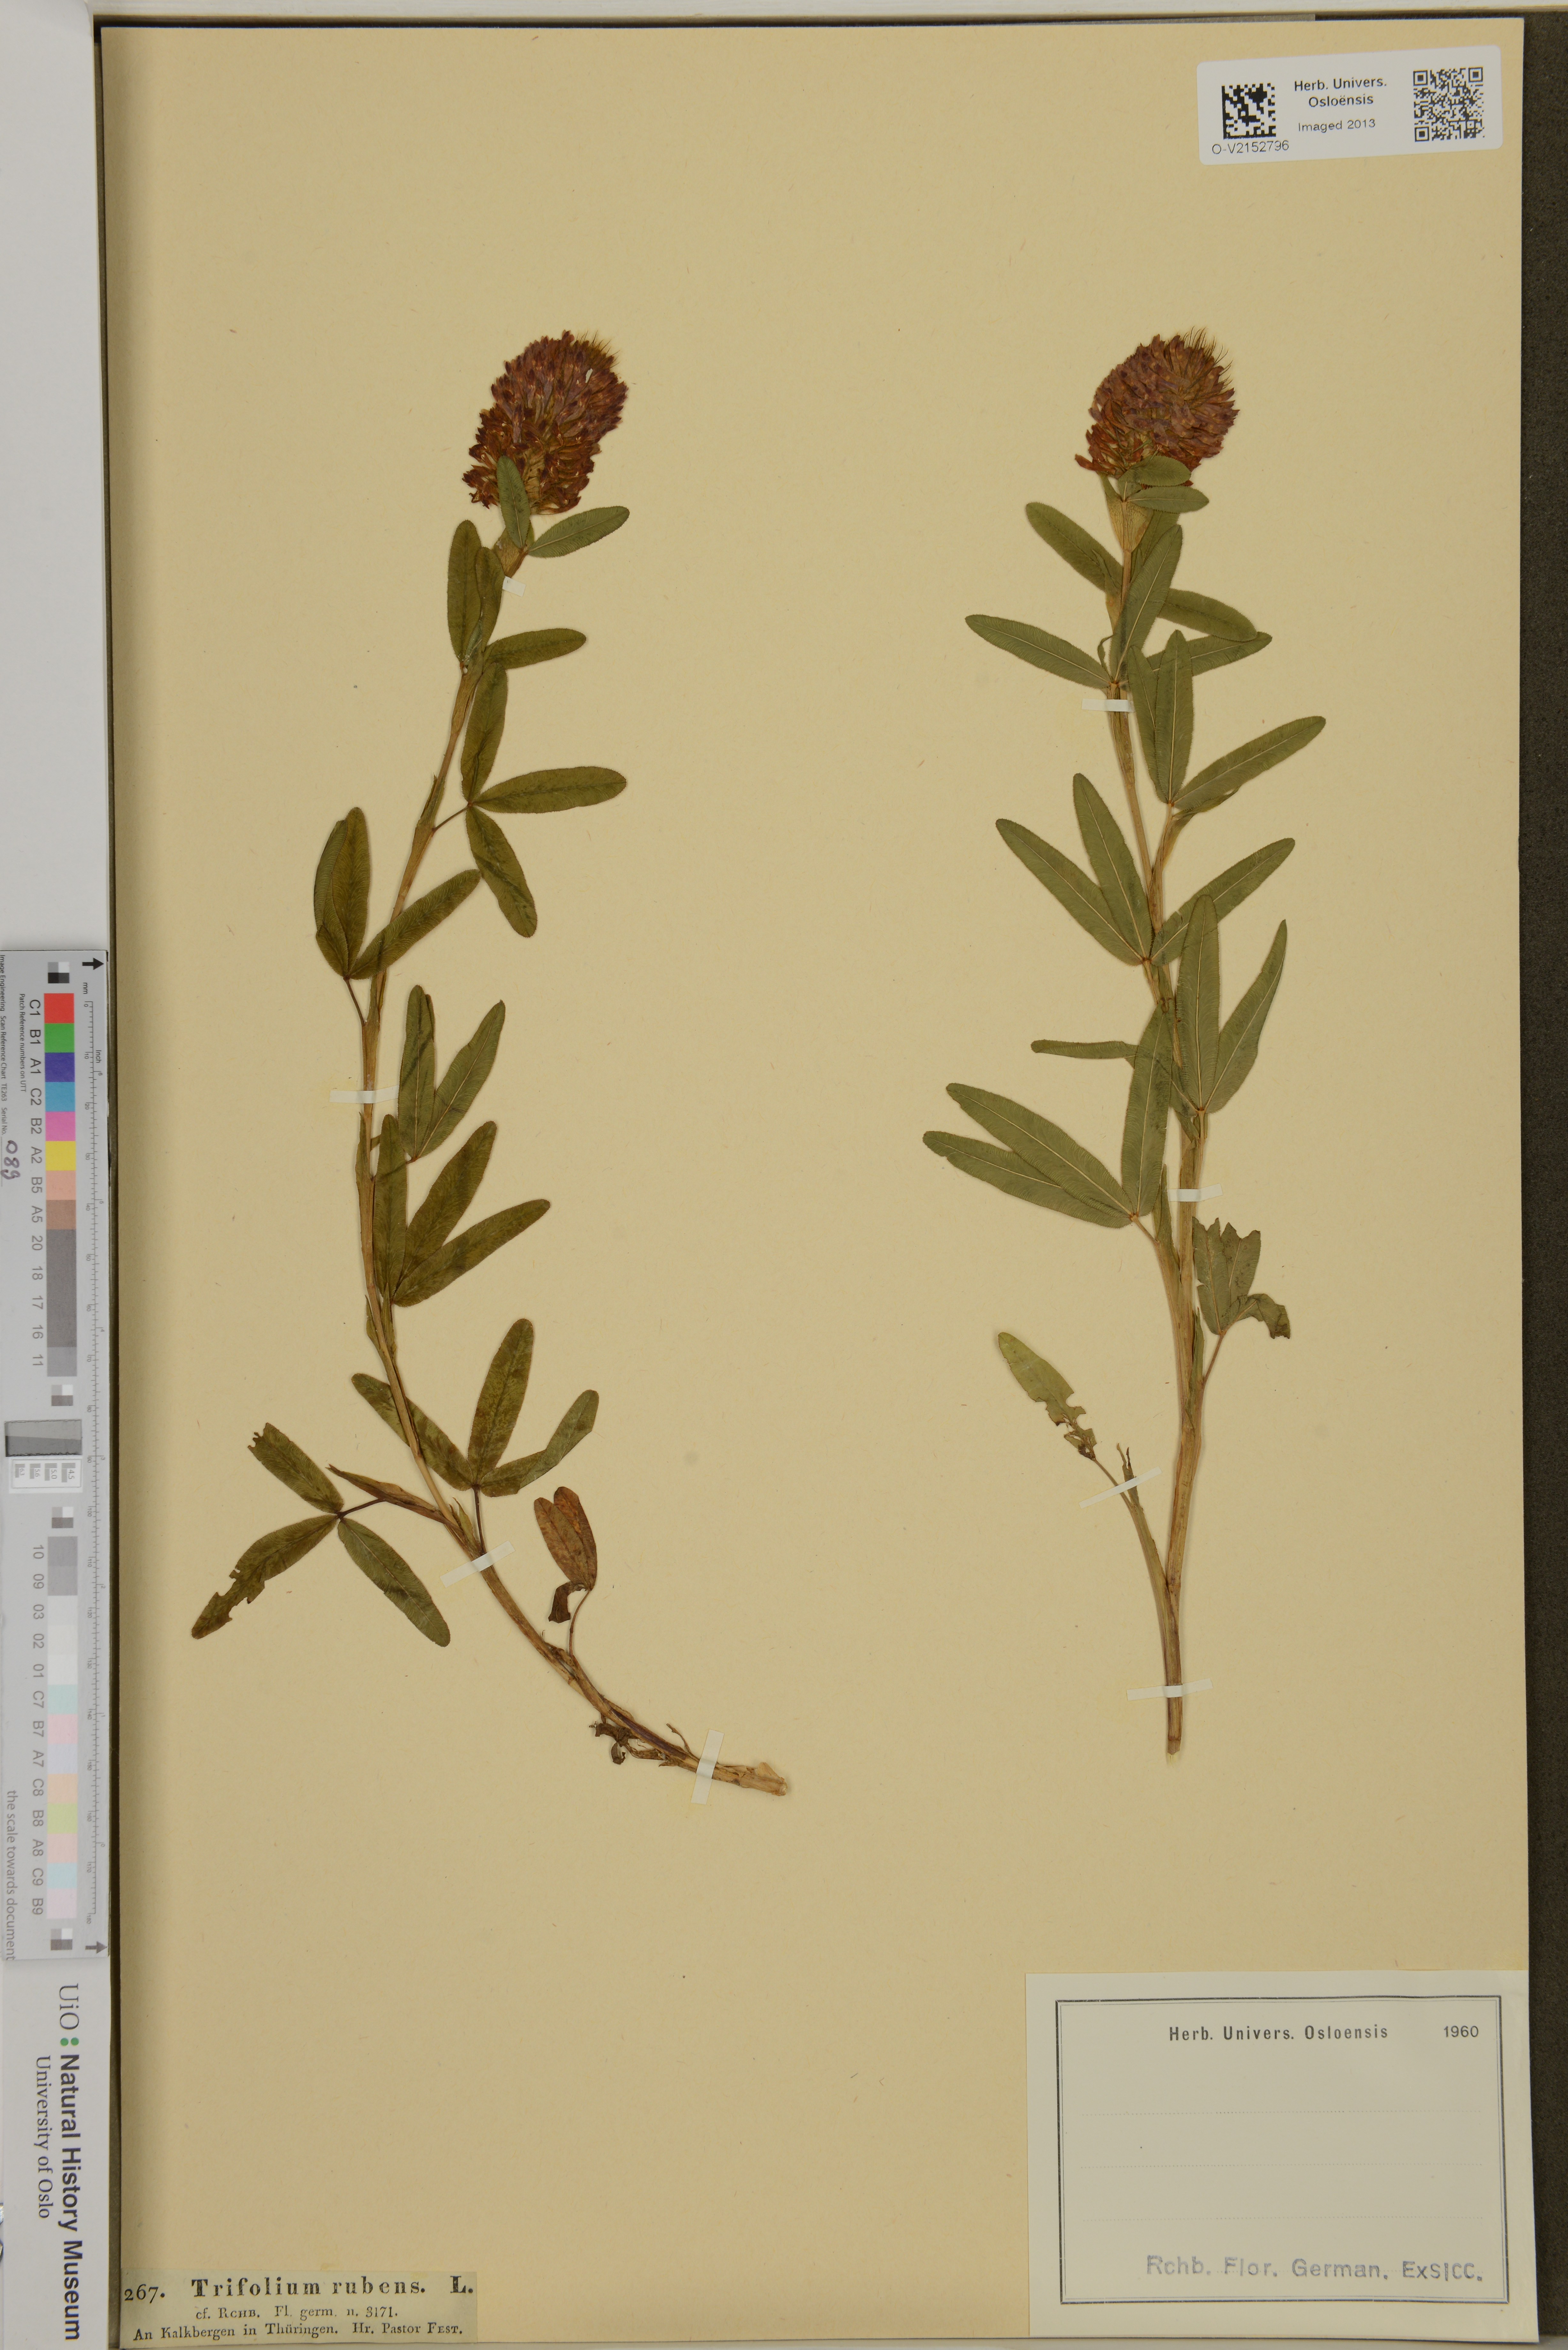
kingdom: Plantae
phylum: Tracheophyta
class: Magnoliopsida
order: Fabales
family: Fabaceae
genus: Trifolium
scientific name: Trifolium rubens
